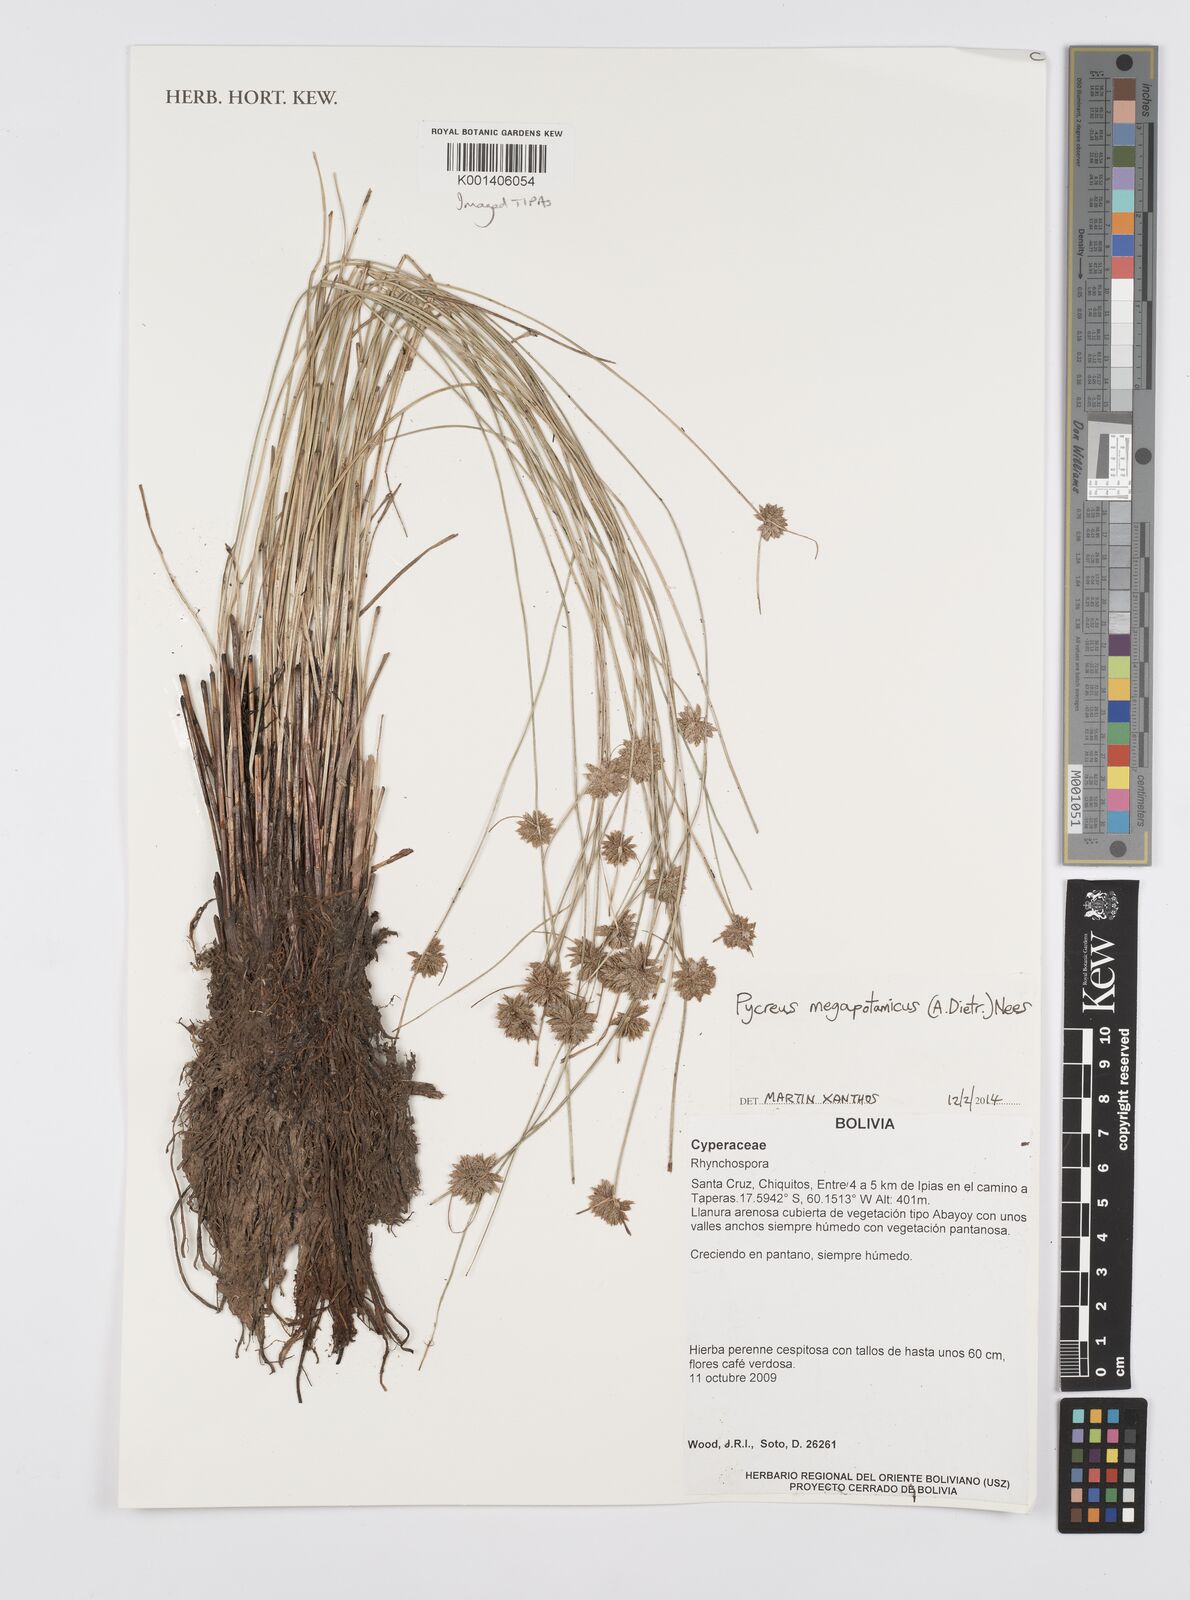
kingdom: Plantae
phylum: Tracheophyta
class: Liliopsida
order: Poales
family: Cyperaceae
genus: Cyperus
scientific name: Cyperus megapotamicus
